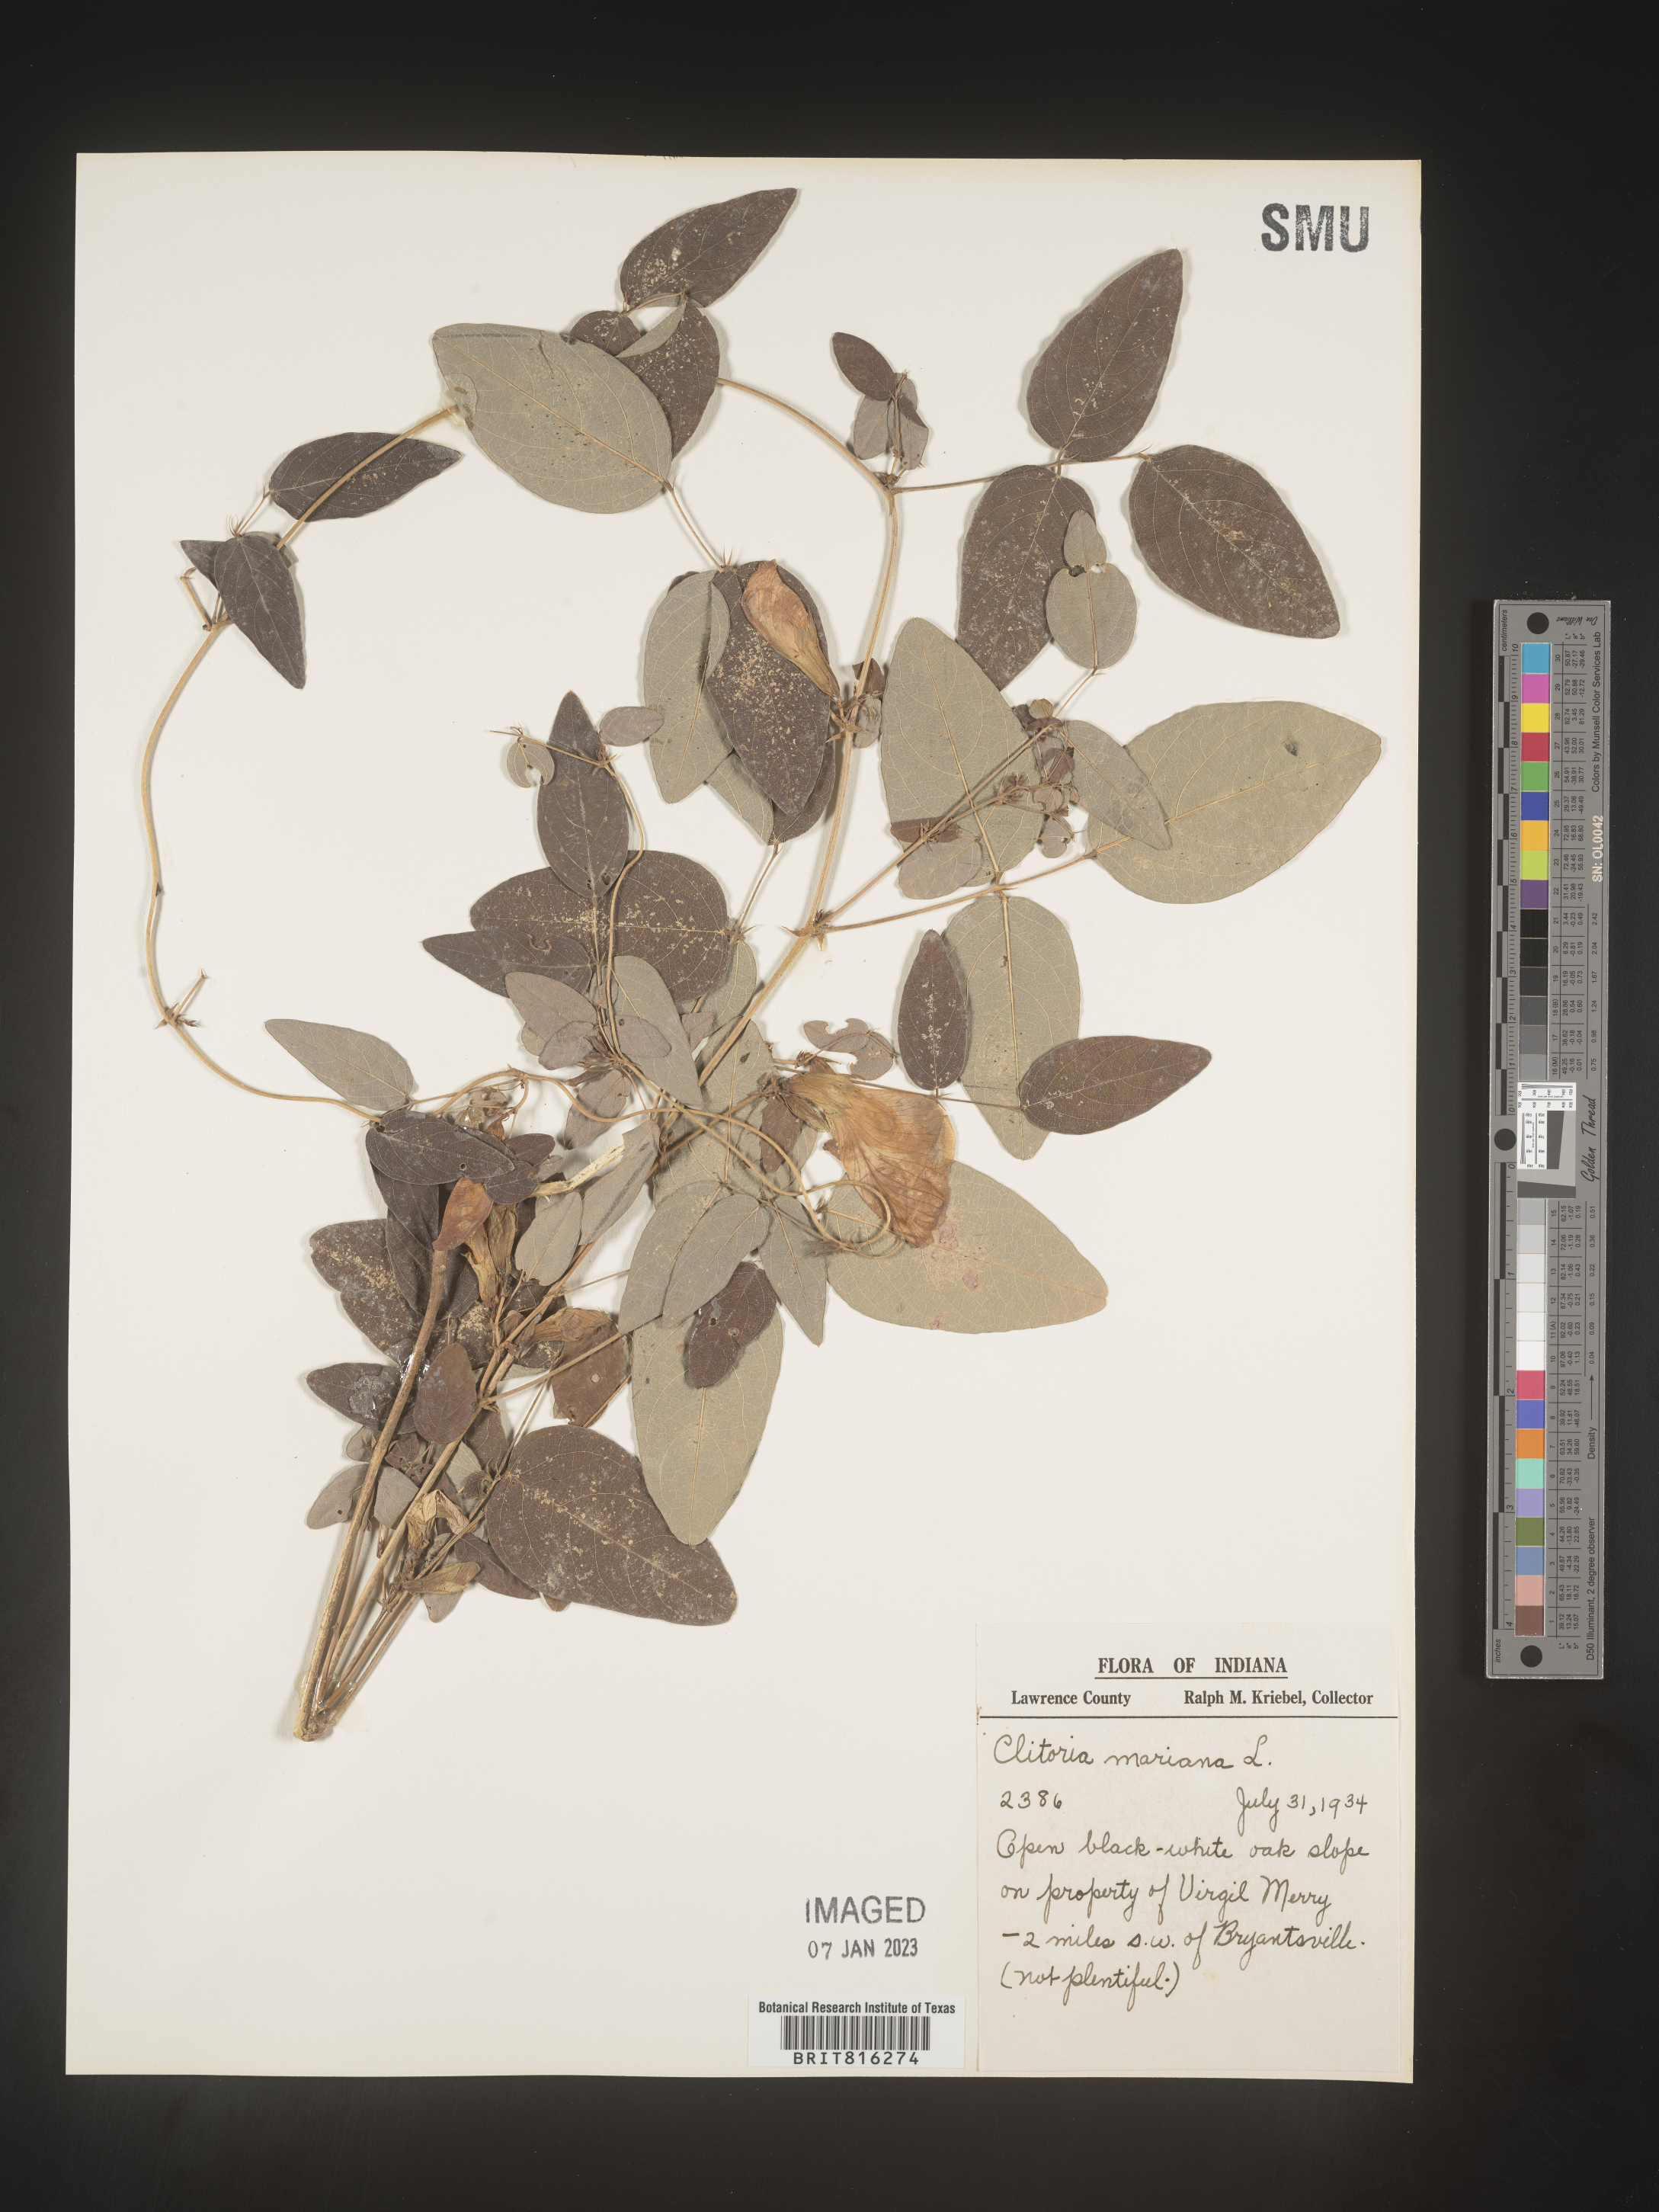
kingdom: Plantae
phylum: Tracheophyta
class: Magnoliopsida
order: Fabales
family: Fabaceae
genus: Clitoria
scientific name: Clitoria mariana
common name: Butterfly-pea
